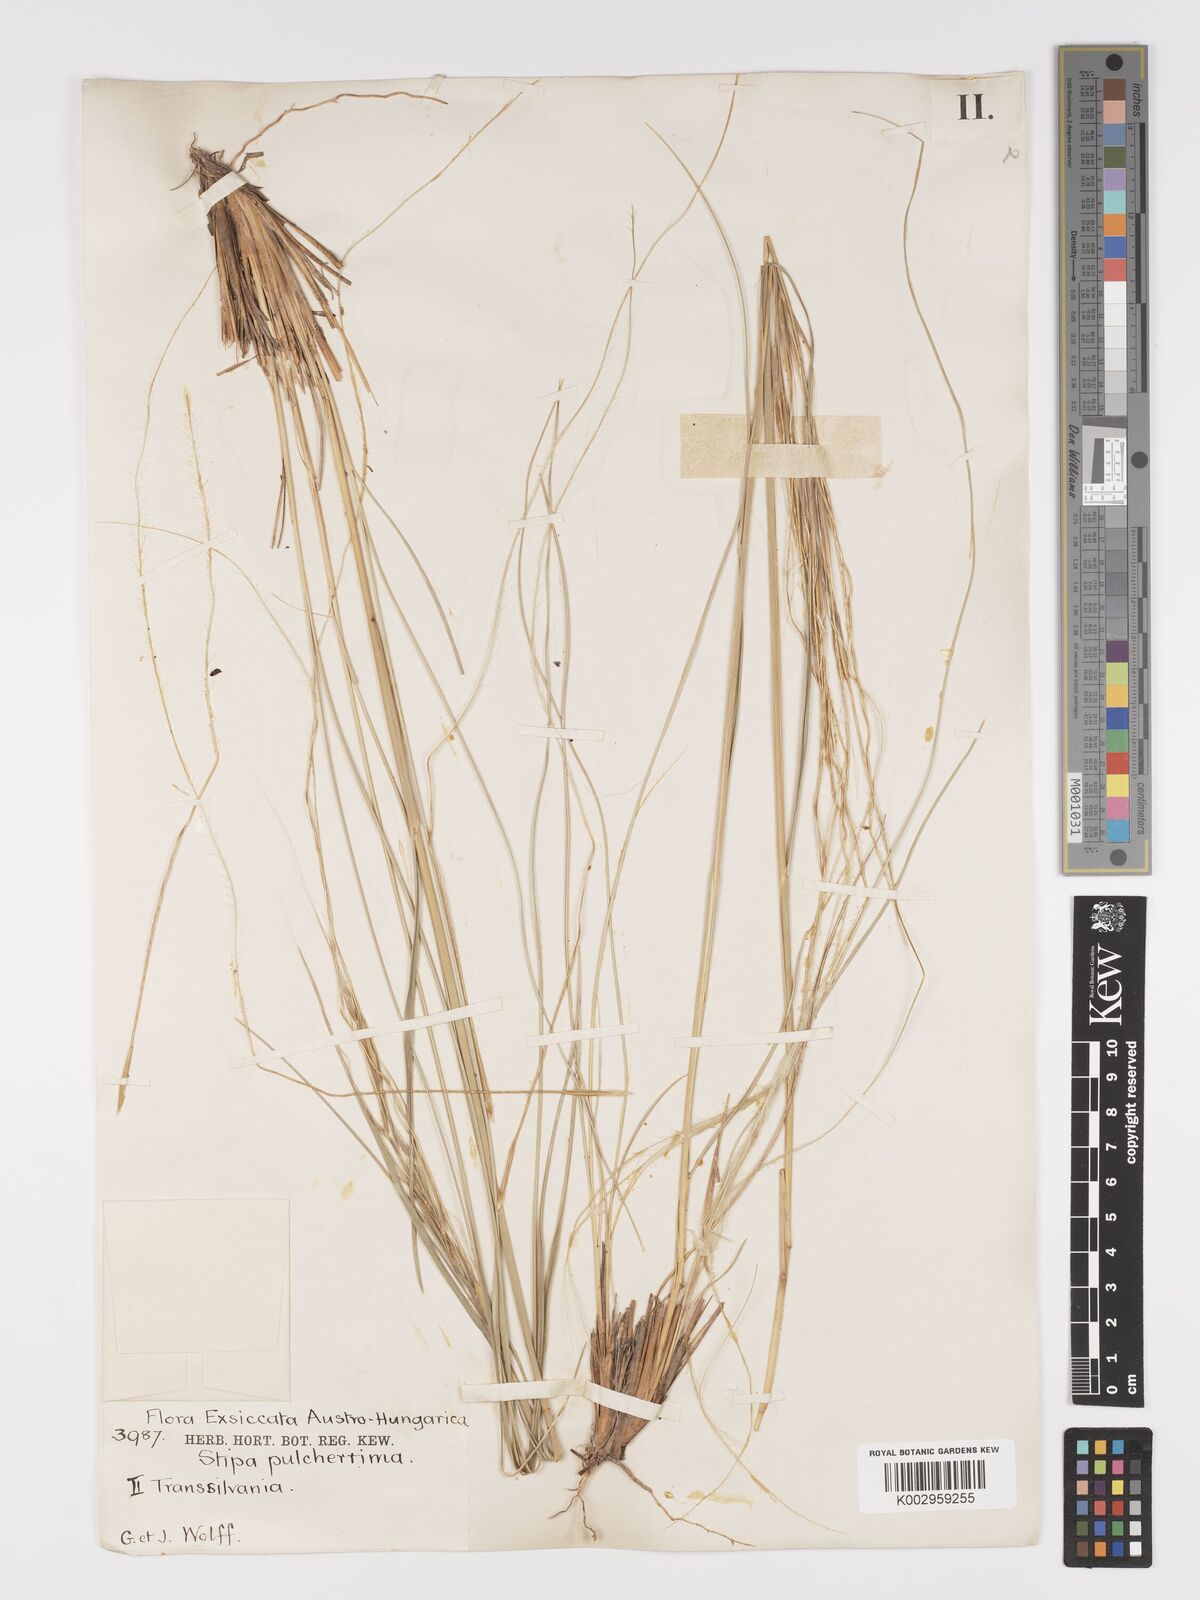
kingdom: Plantae
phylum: Tracheophyta
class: Liliopsida
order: Poales
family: Poaceae
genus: Stipa
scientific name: Stipa pulcherrima
